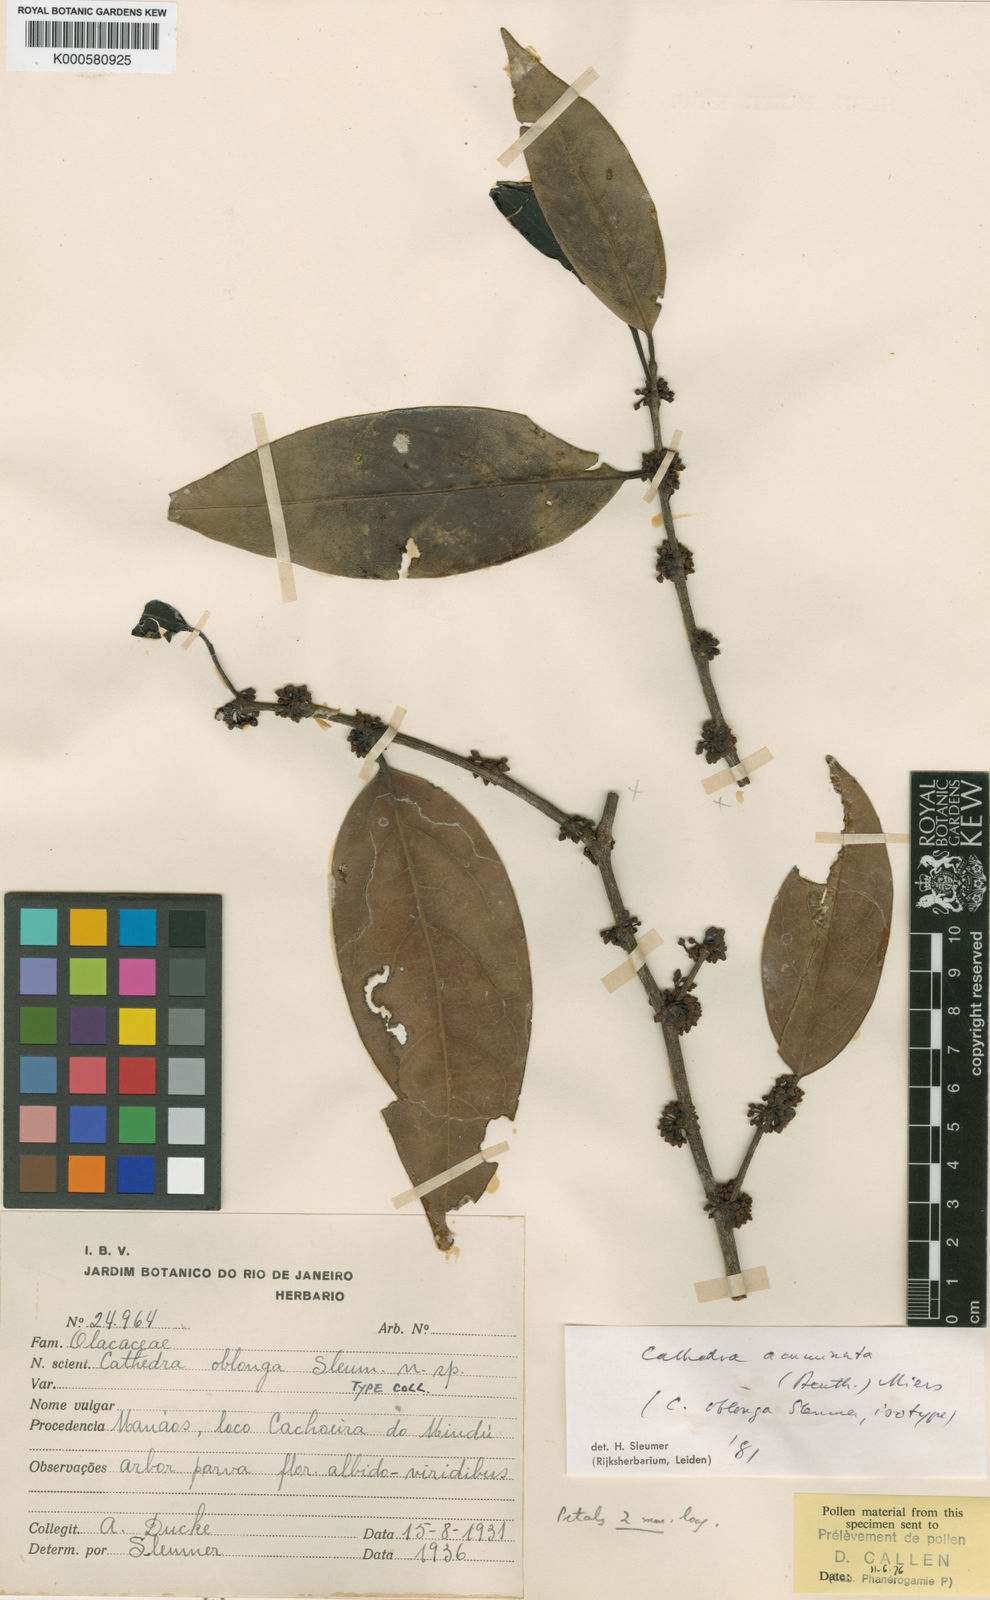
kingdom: Plantae
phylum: Tracheophyta
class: Magnoliopsida
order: Santalales
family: Aptandraceae
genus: Cathedra
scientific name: Cathedra acuminata
